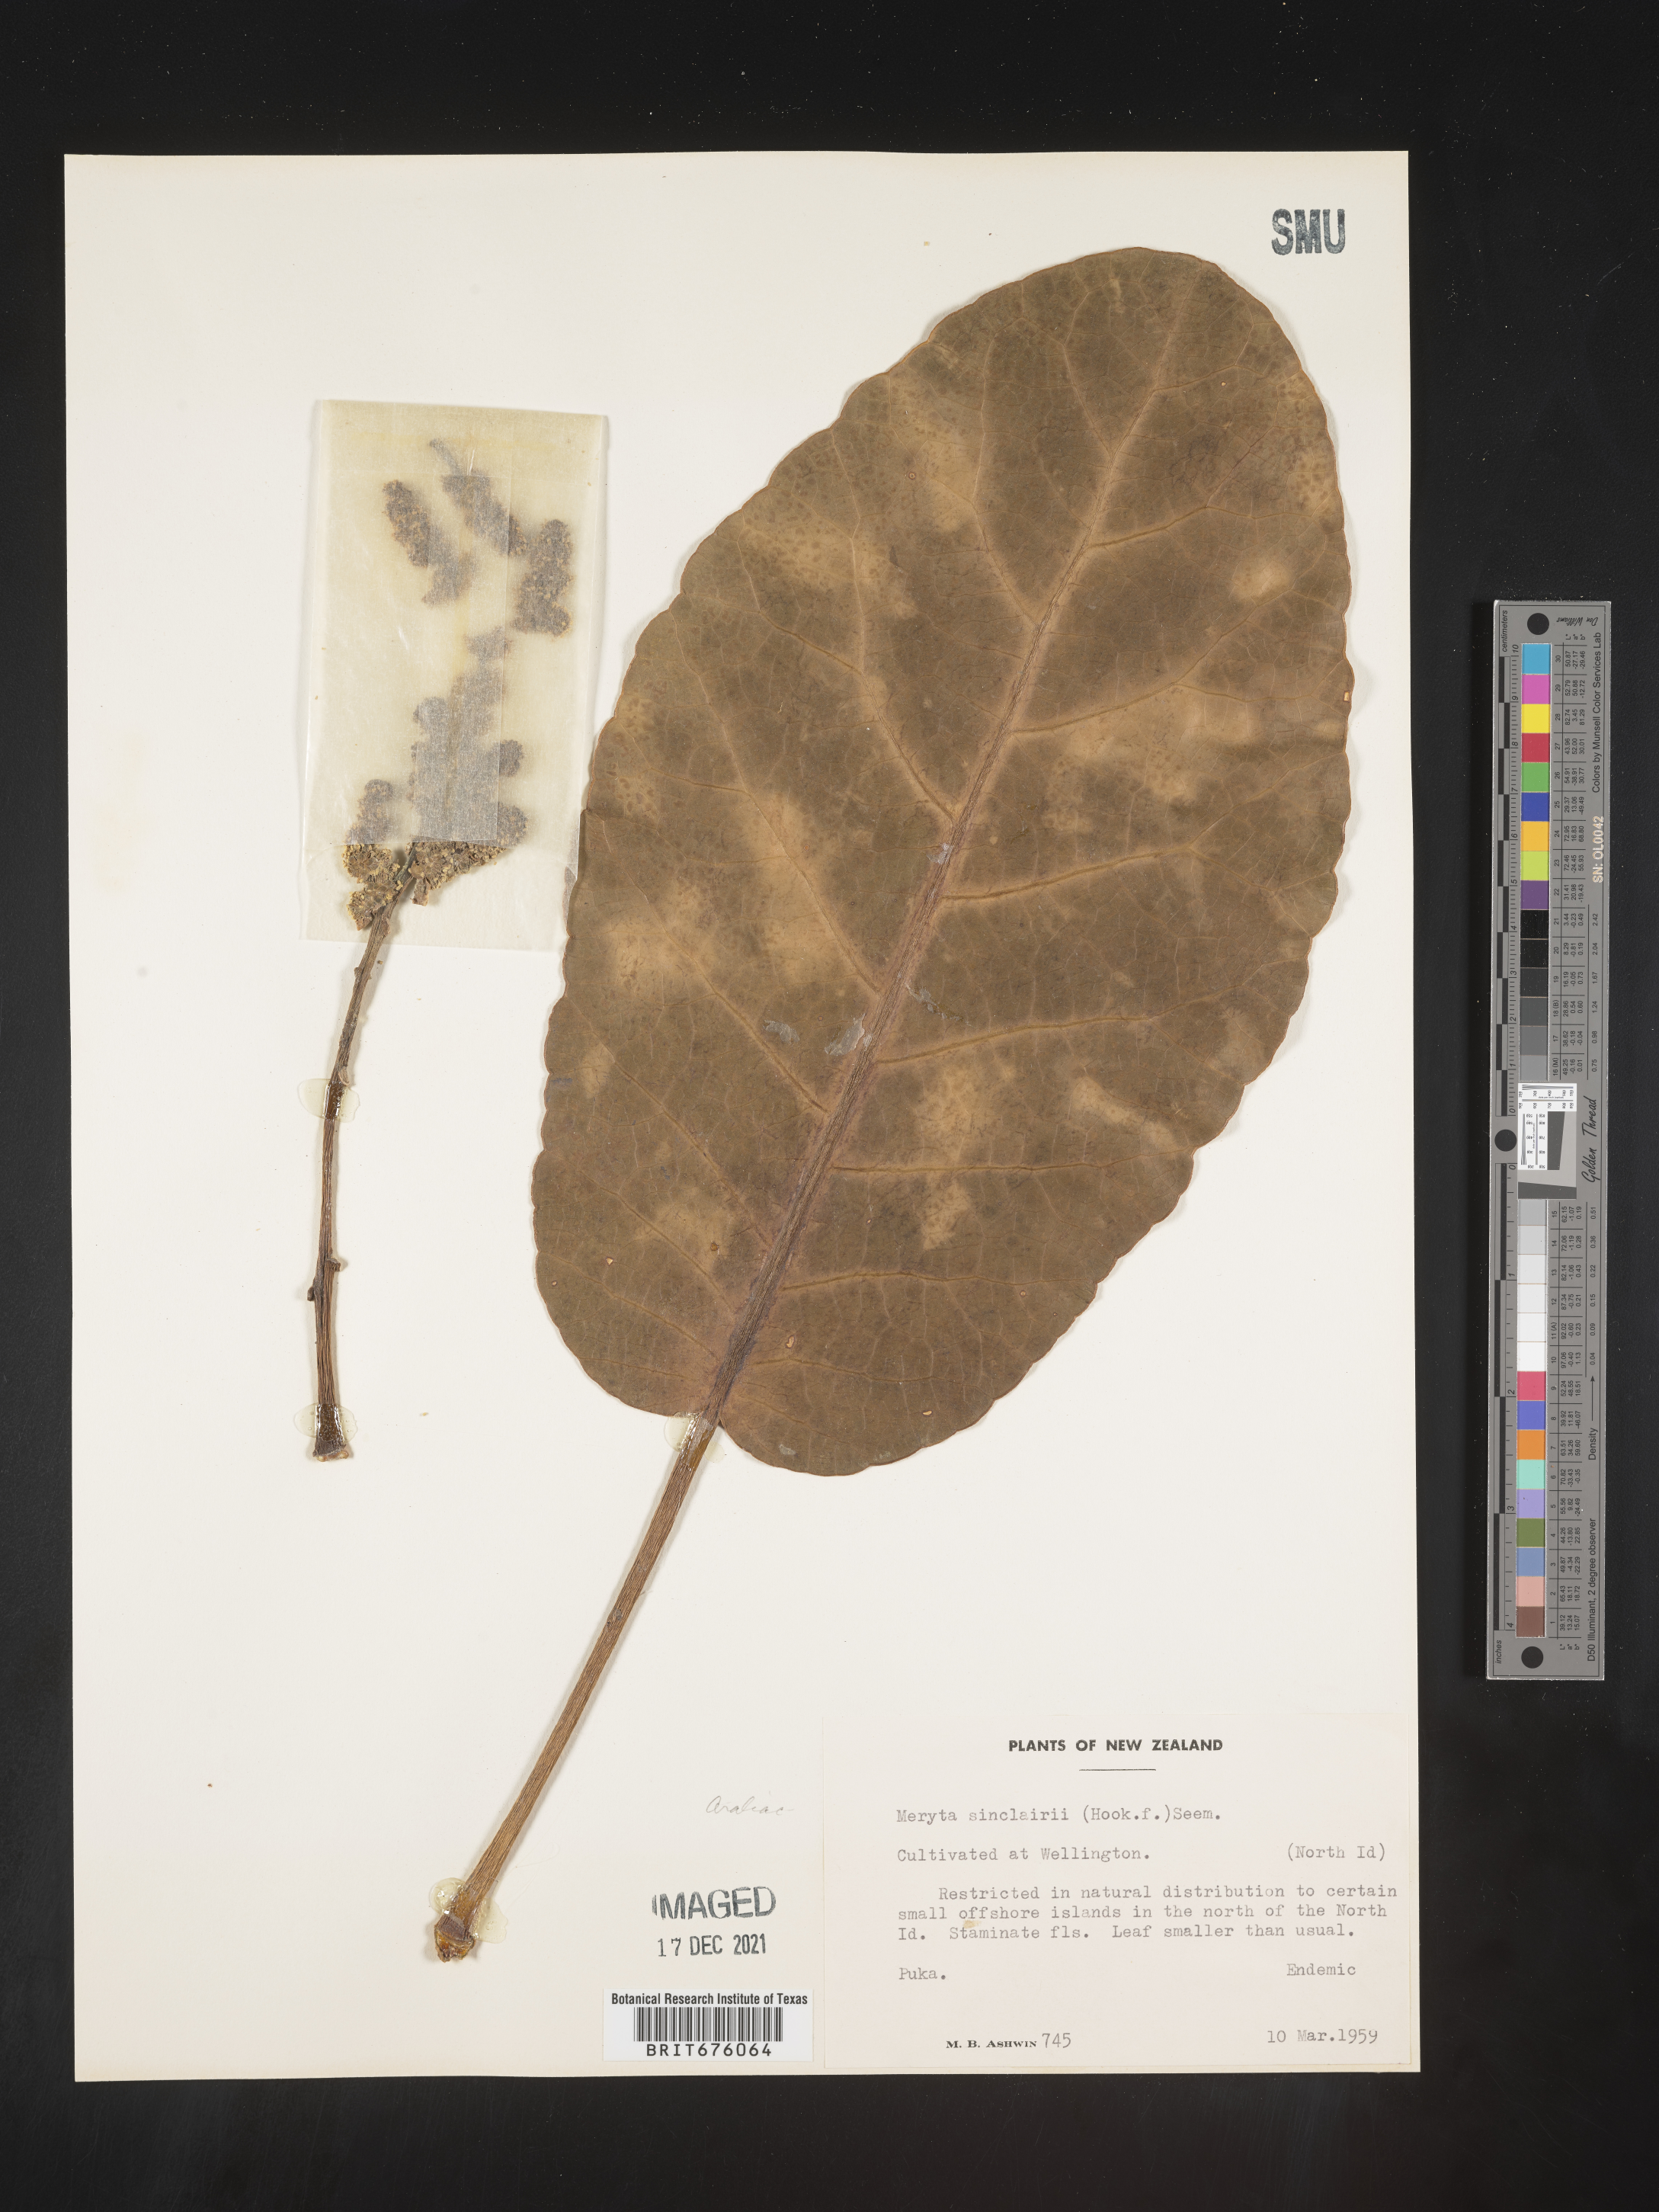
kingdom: Plantae
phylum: Tracheophyta
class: Magnoliopsida
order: Apiales
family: Araliaceae
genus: Meryta
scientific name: Meryta sinclairii
